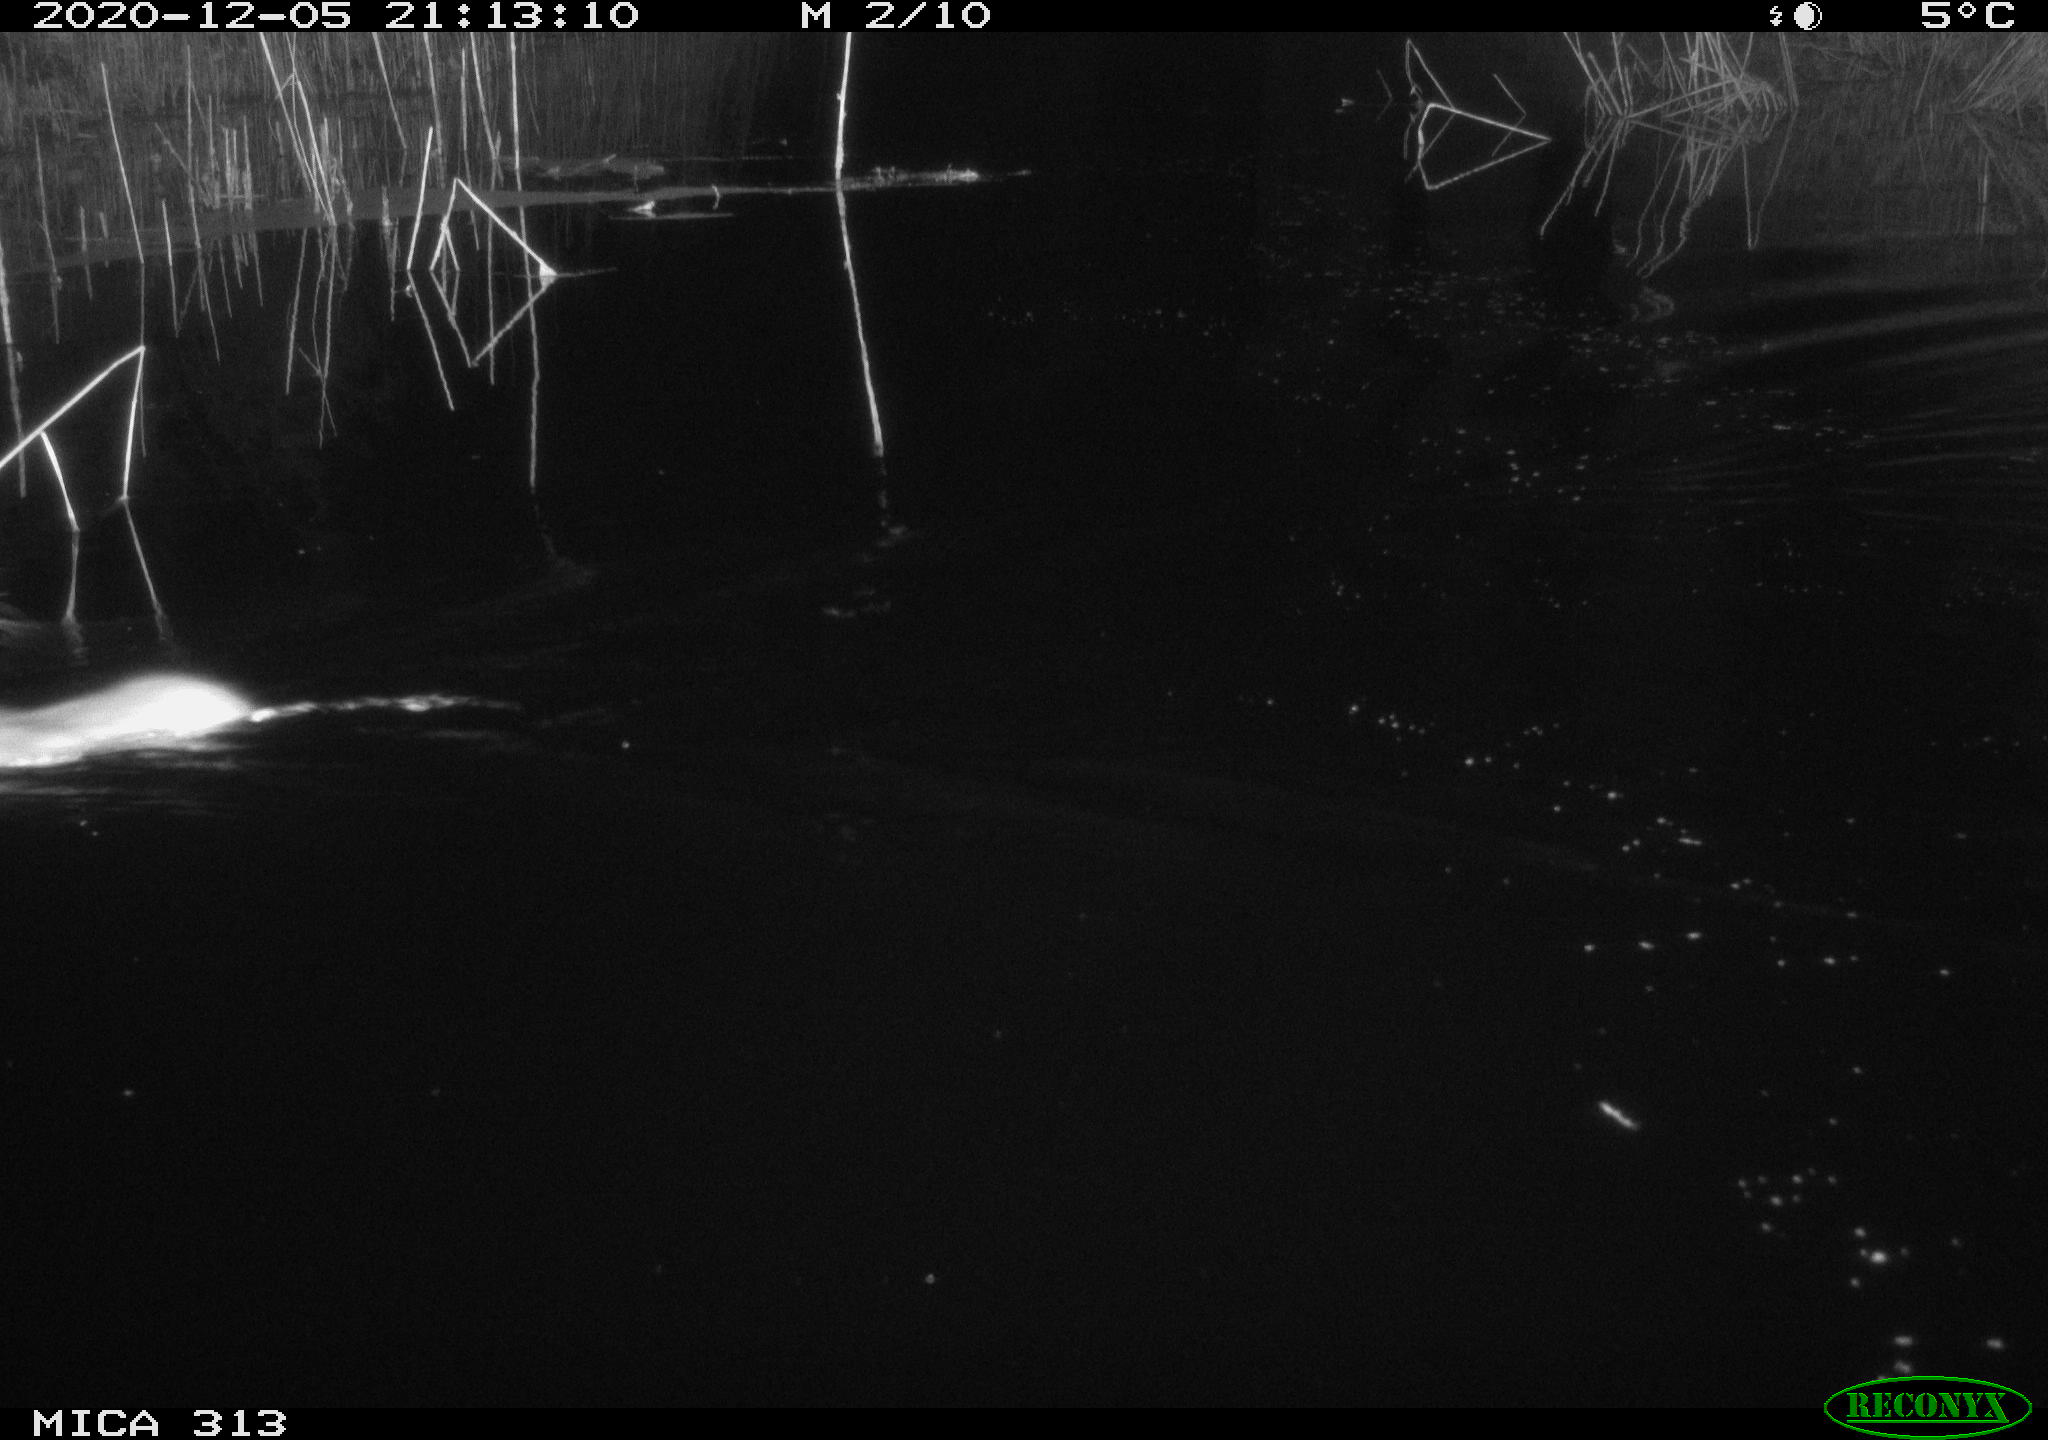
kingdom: Animalia
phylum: Chordata
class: Mammalia
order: Rodentia
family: Muridae
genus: Rattus
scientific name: Rattus norvegicus
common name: Brown rat
